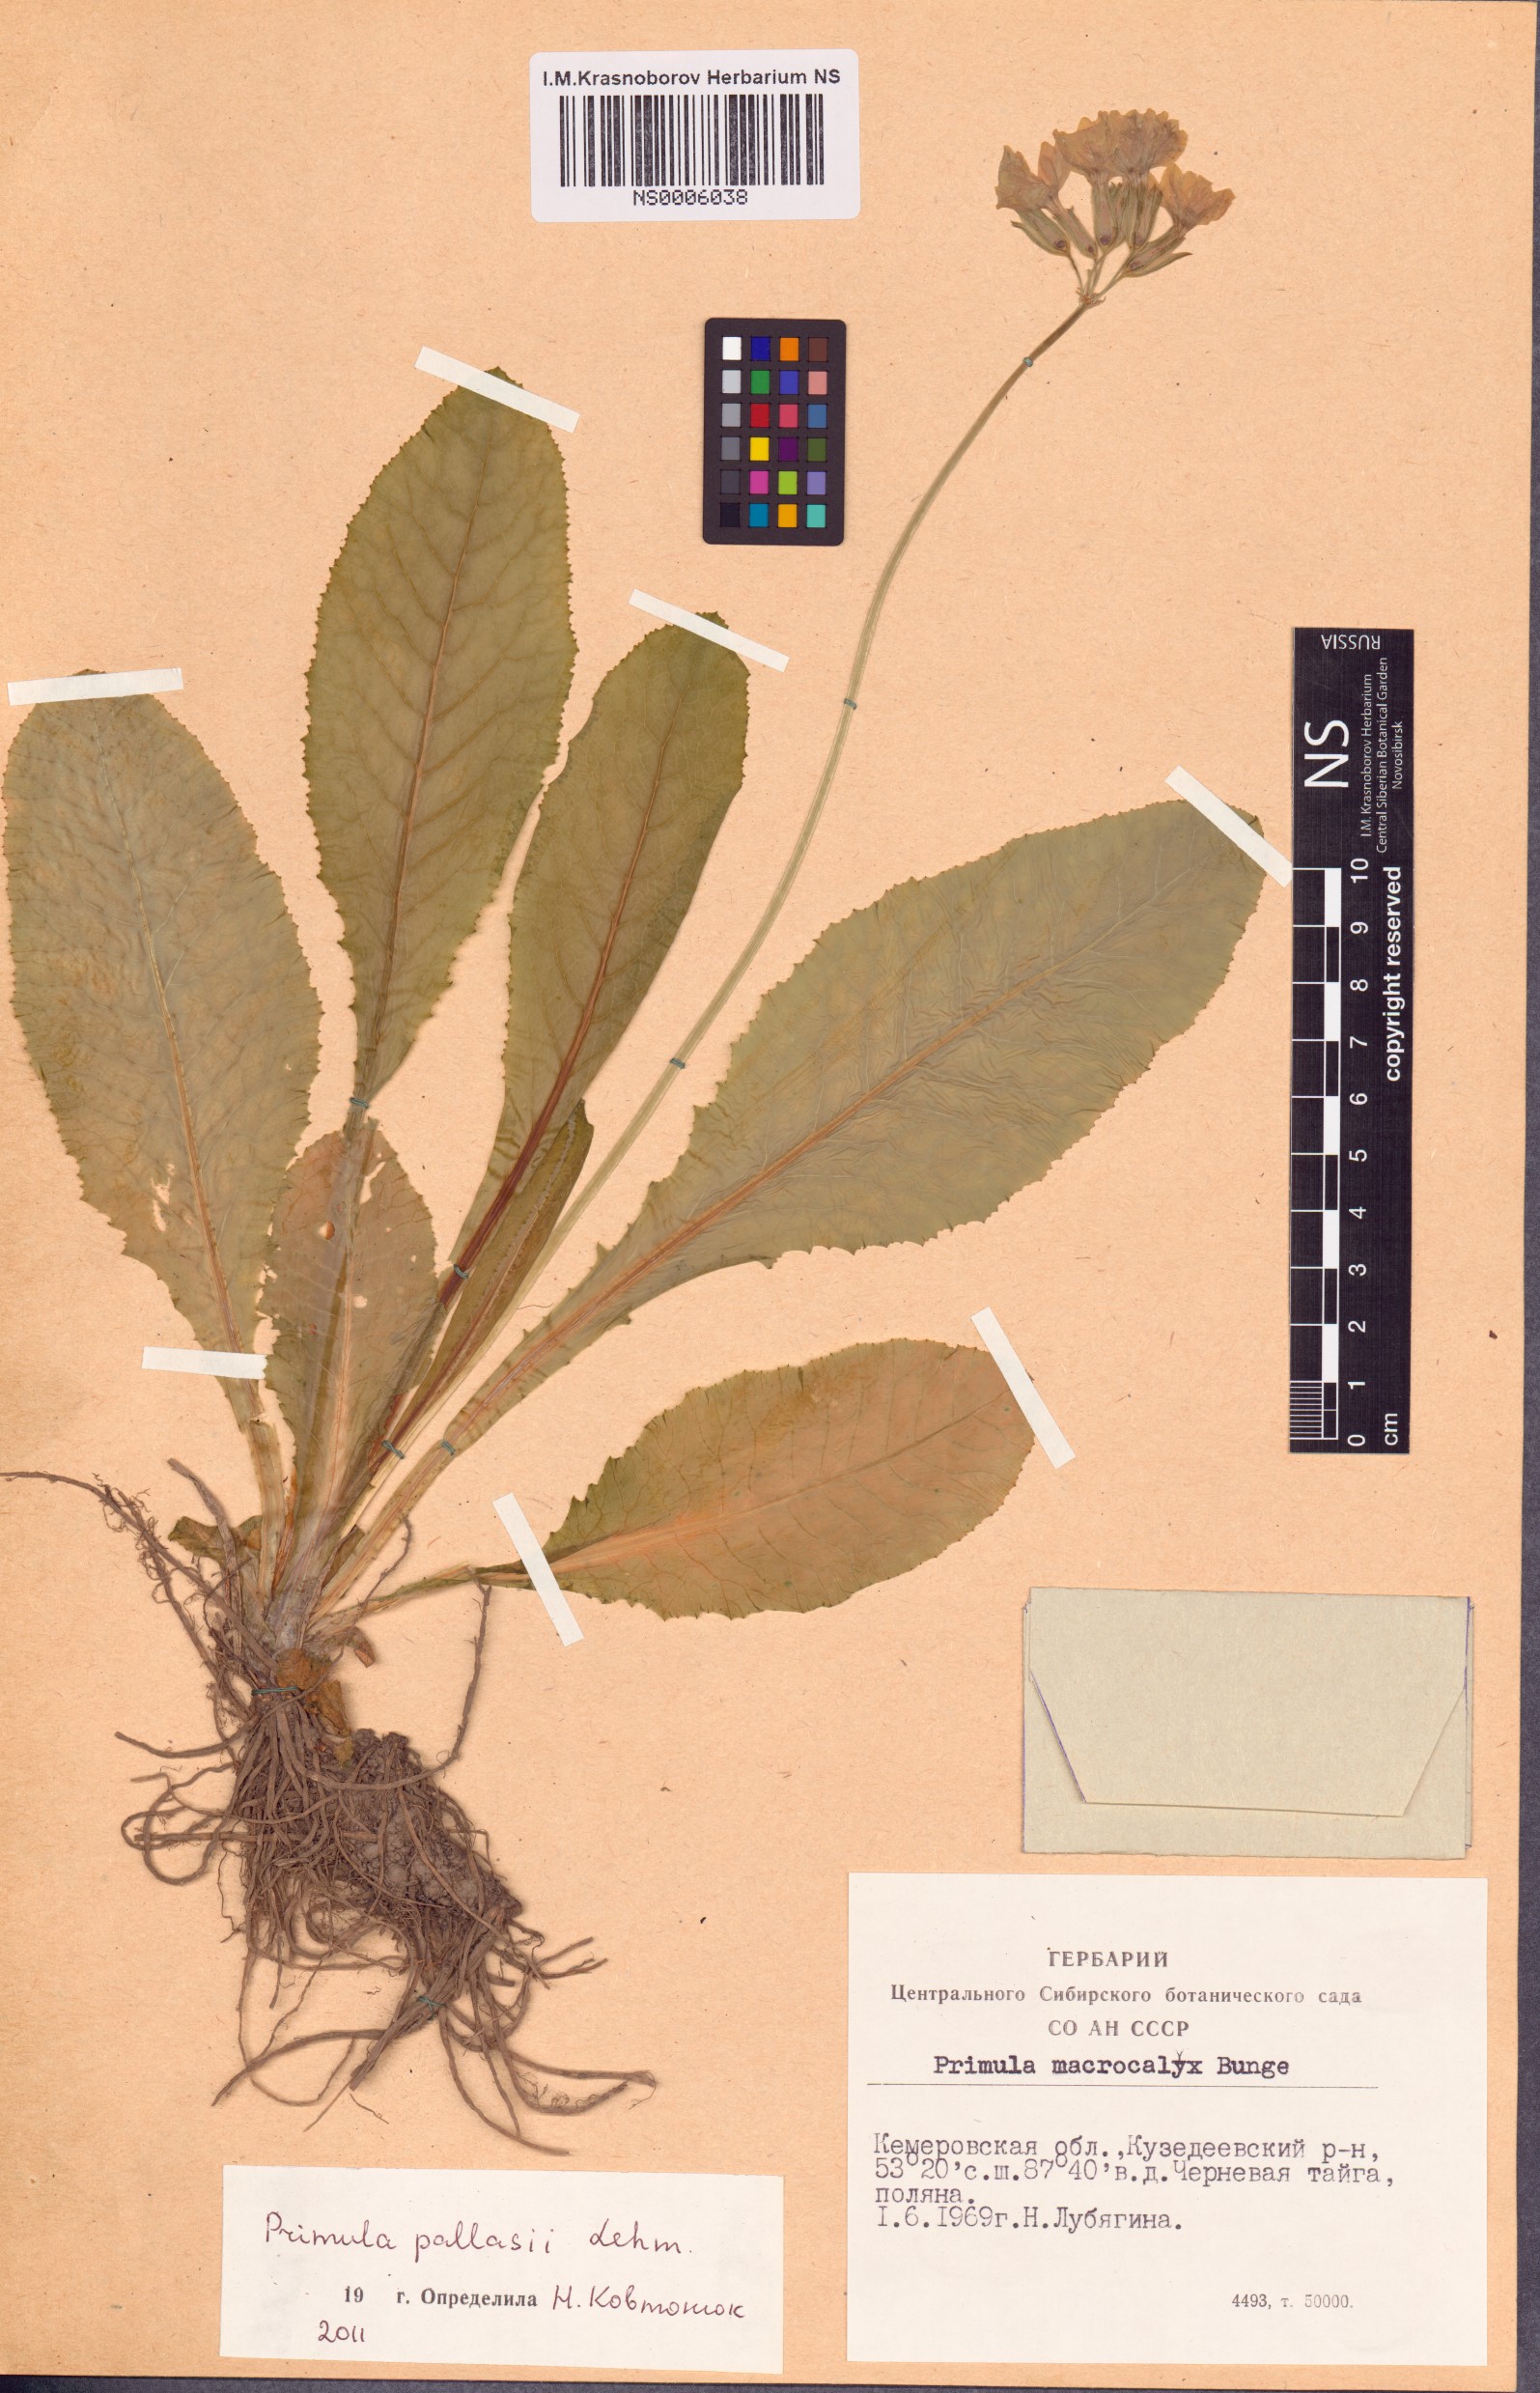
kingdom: Plantae
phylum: Tracheophyta
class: Magnoliopsida
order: Ericales
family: Primulaceae
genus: Primula
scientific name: Primula elatior
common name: Oxlip
